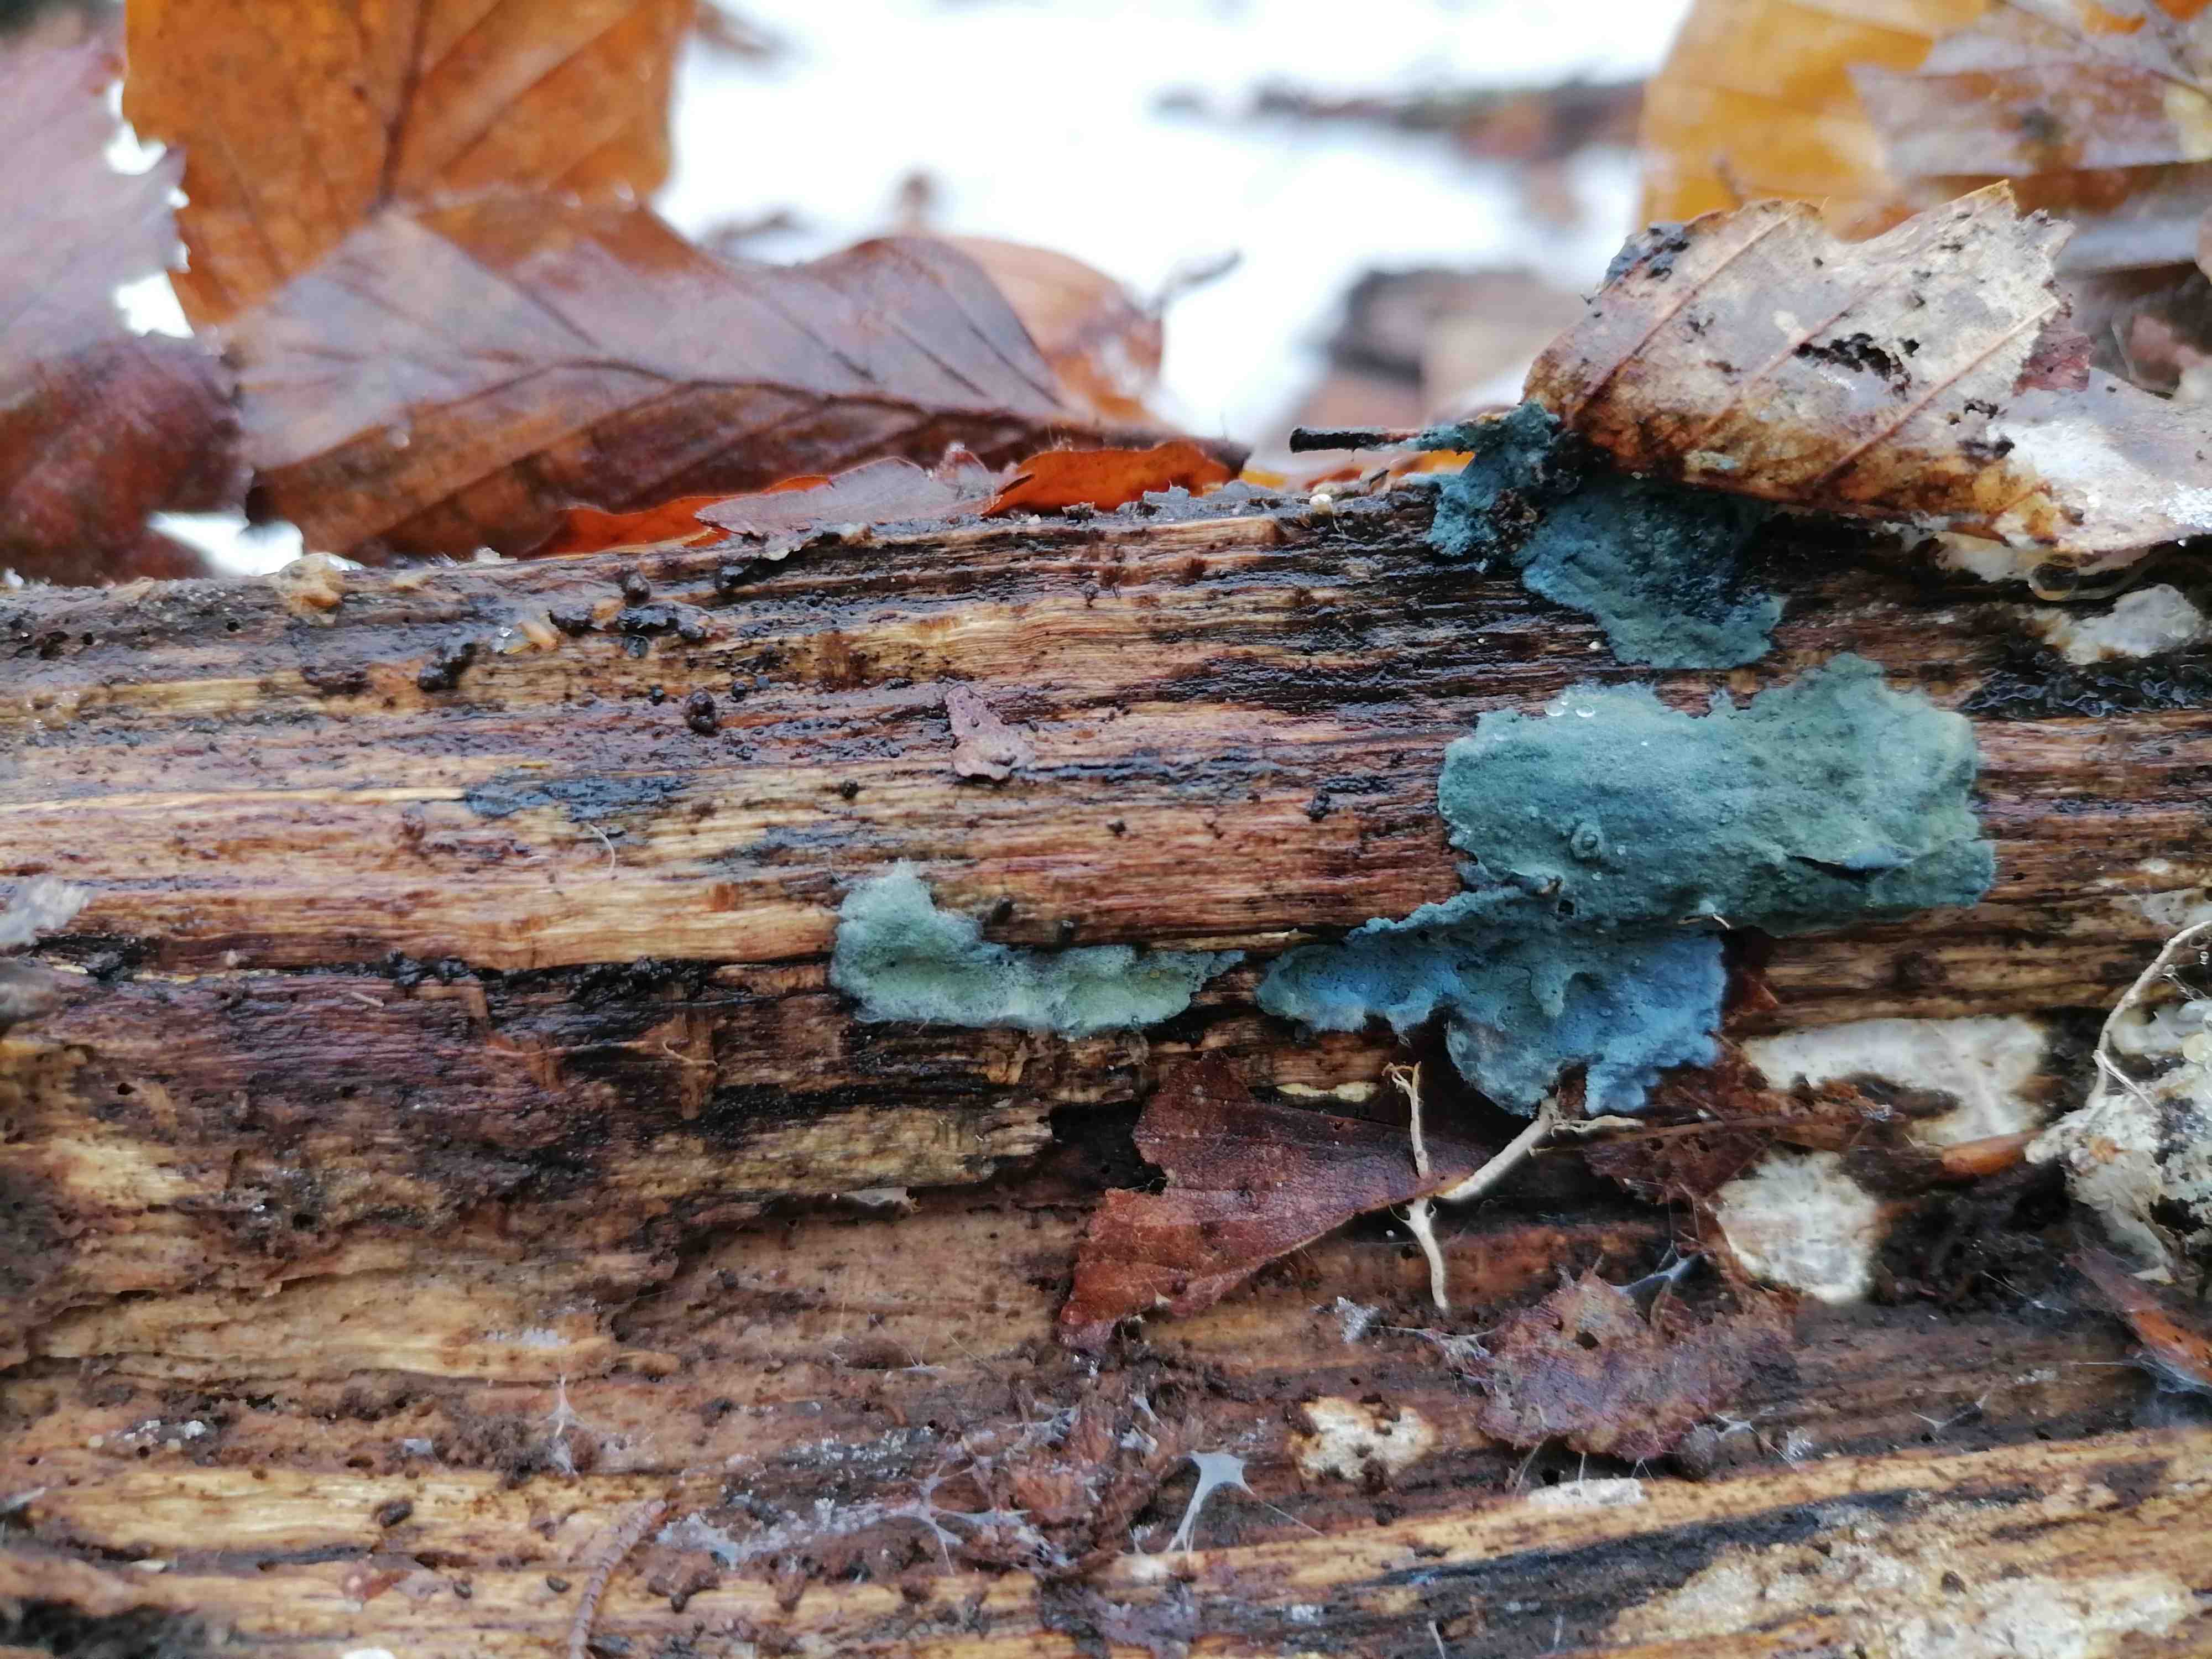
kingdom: Fungi
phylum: Basidiomycota
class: Agaricomycetes
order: Atheliales
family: Atheliaceae
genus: Byssocorticium
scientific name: Byssocorticium
